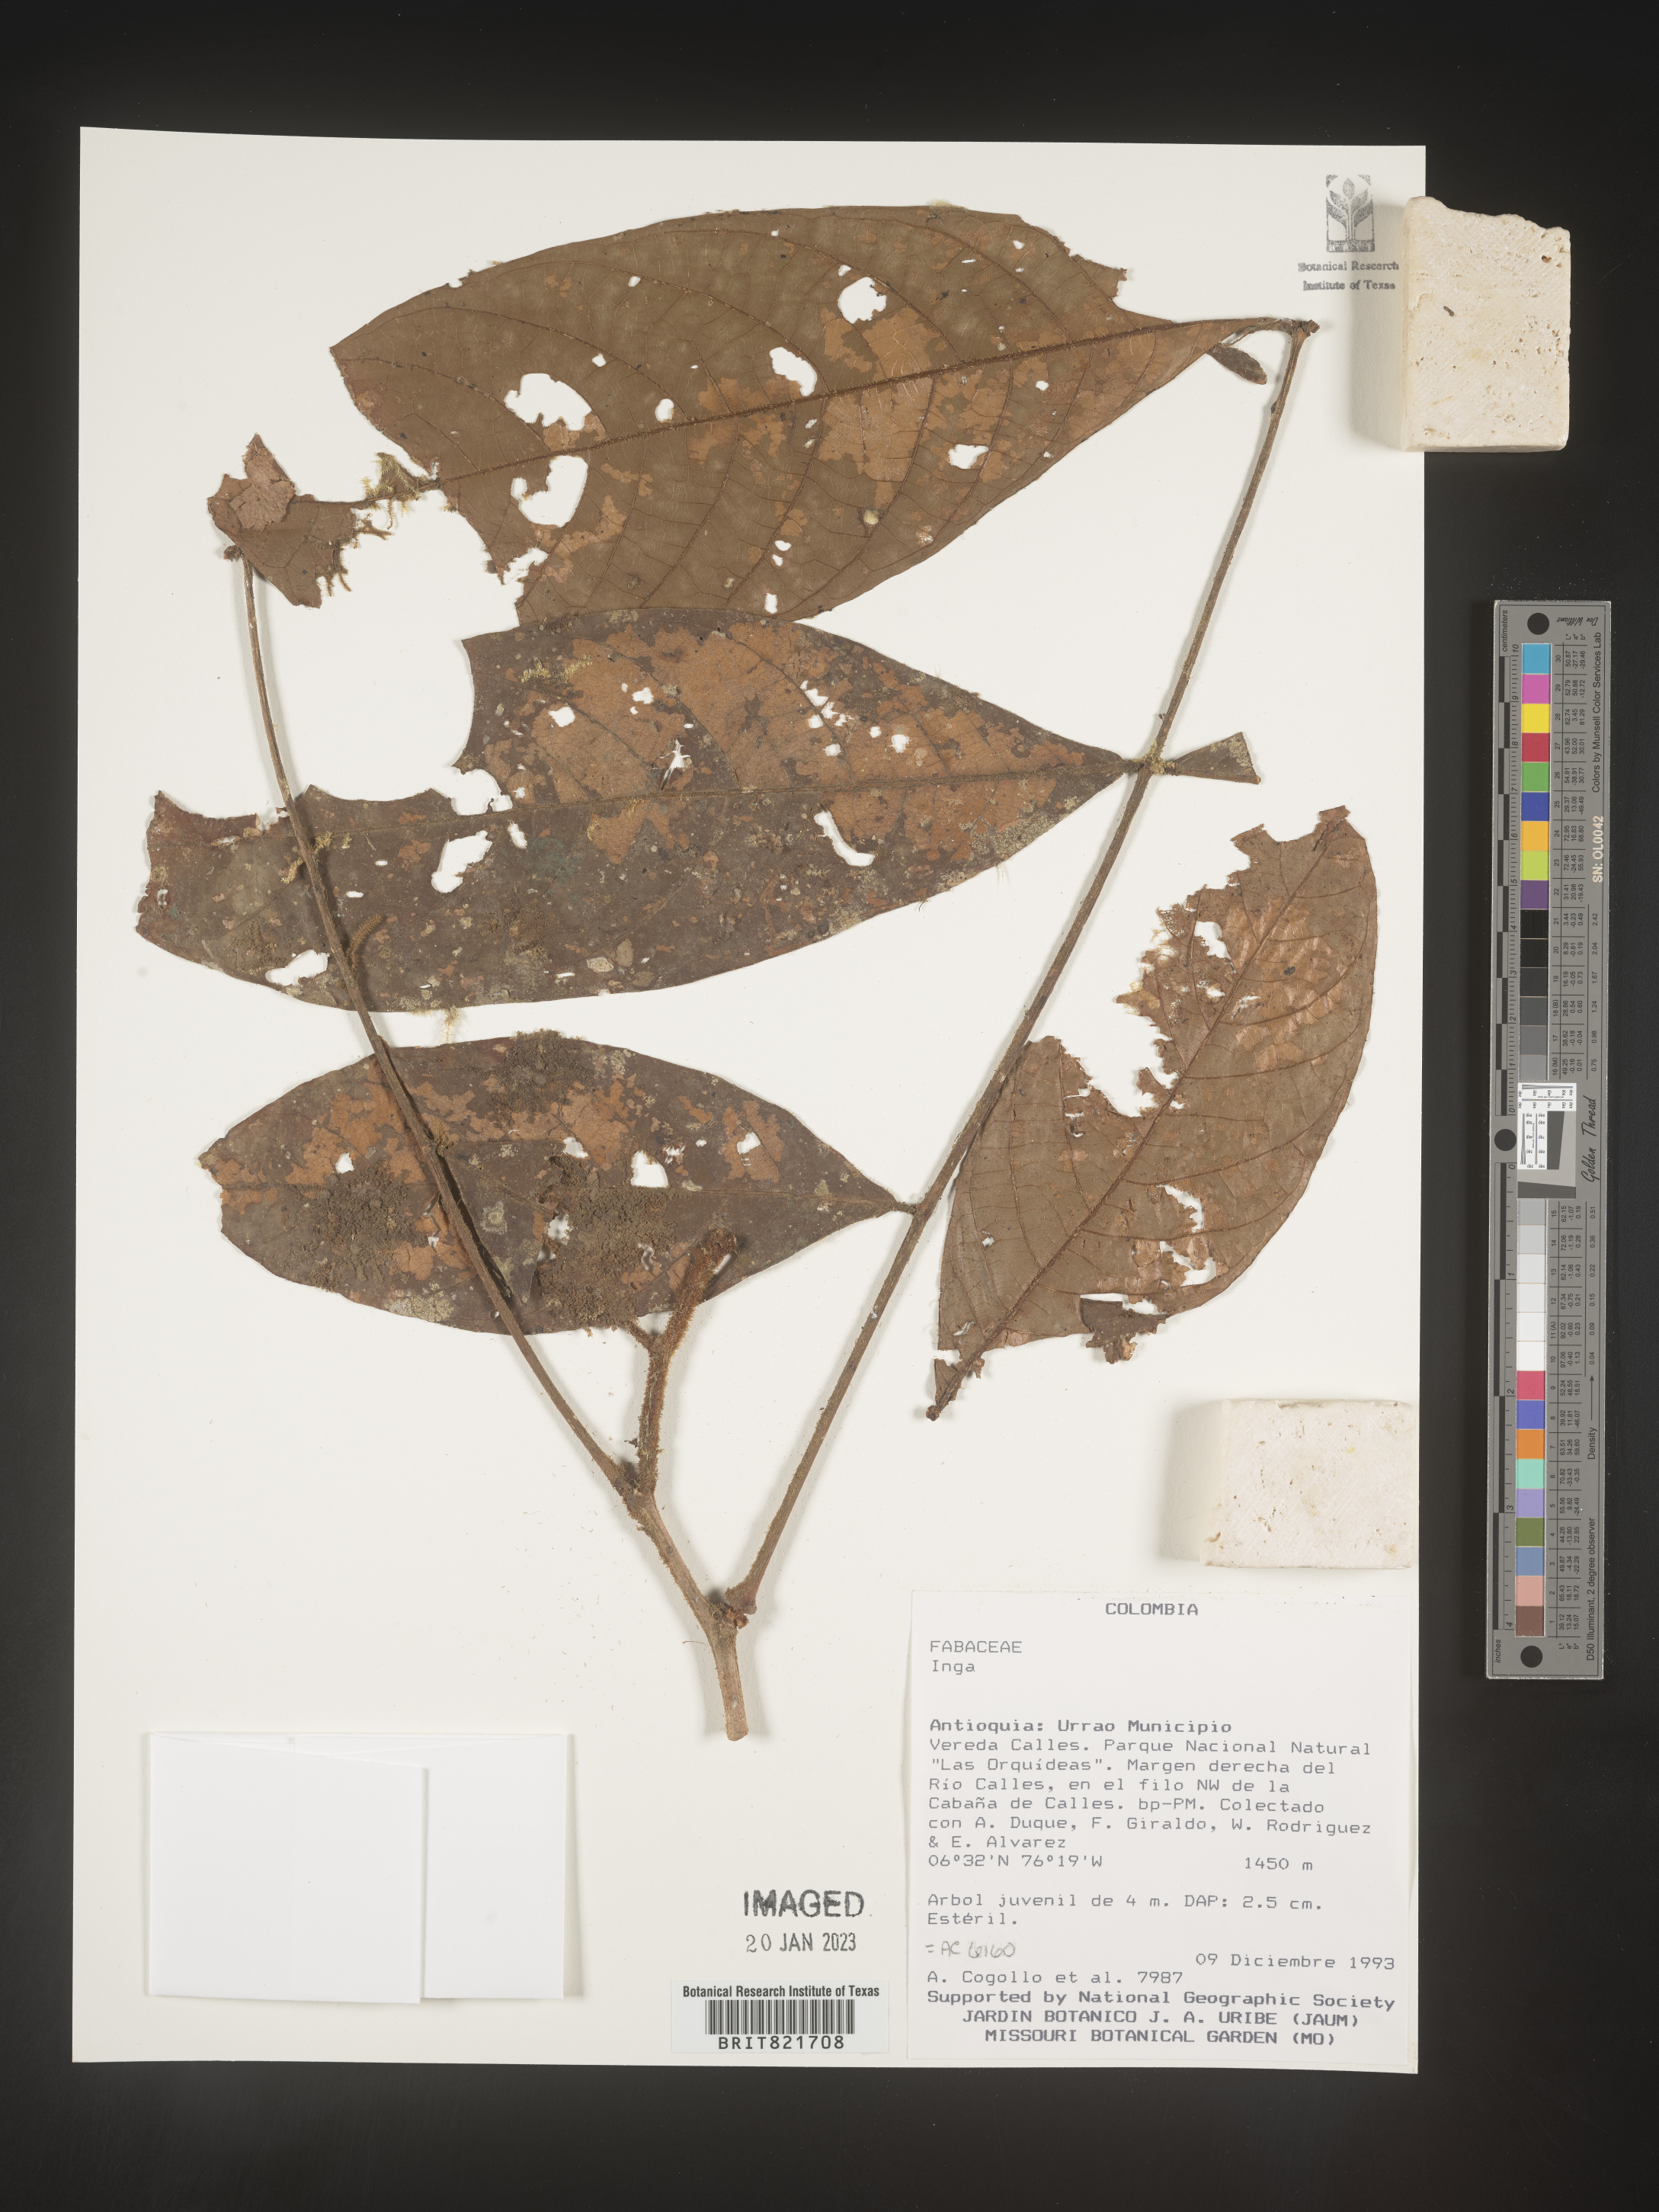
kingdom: Plantae
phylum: Tracheophyta
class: Magnoliopsida
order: Fabales
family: Fabaceae
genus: Inga
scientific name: Inga
